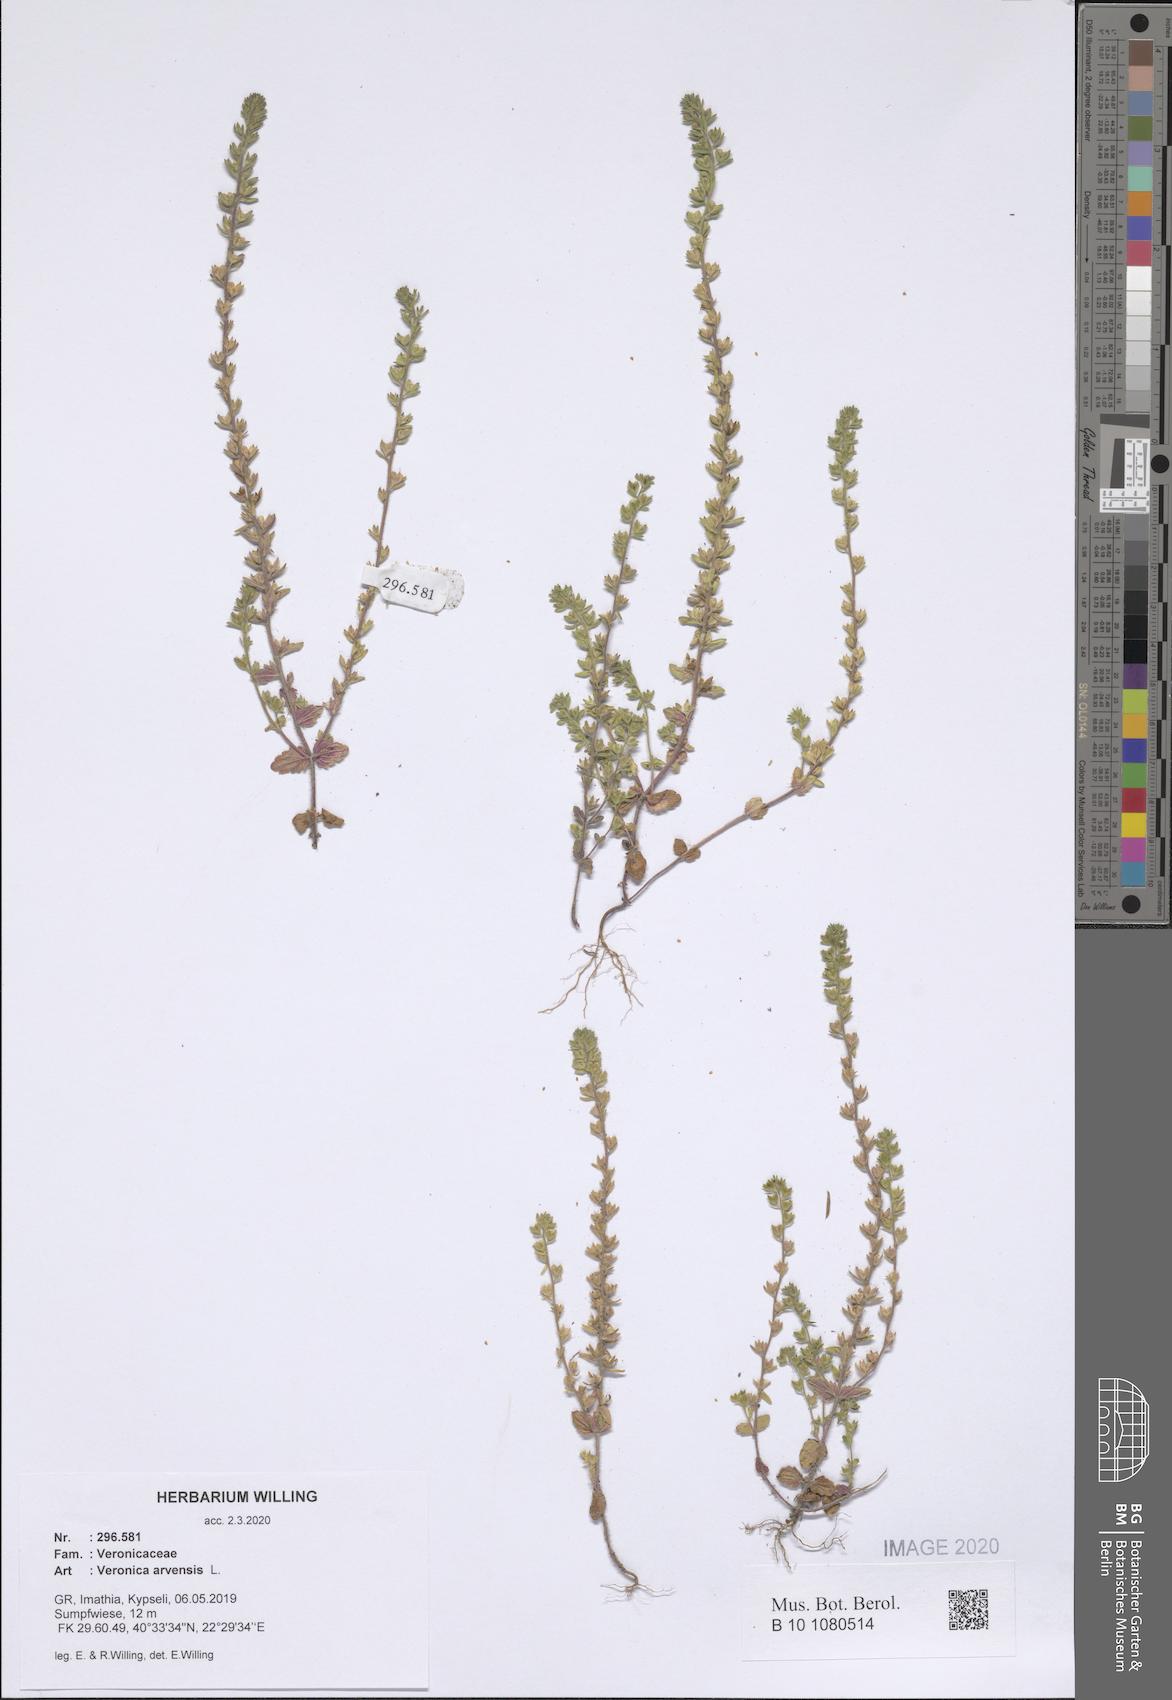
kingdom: Plantae
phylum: Tracheophyta
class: Magnoliopsida
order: Lamiales
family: Plantaginaceae
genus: Veronica
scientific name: Veronica arvensis
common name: Corn speedwell
